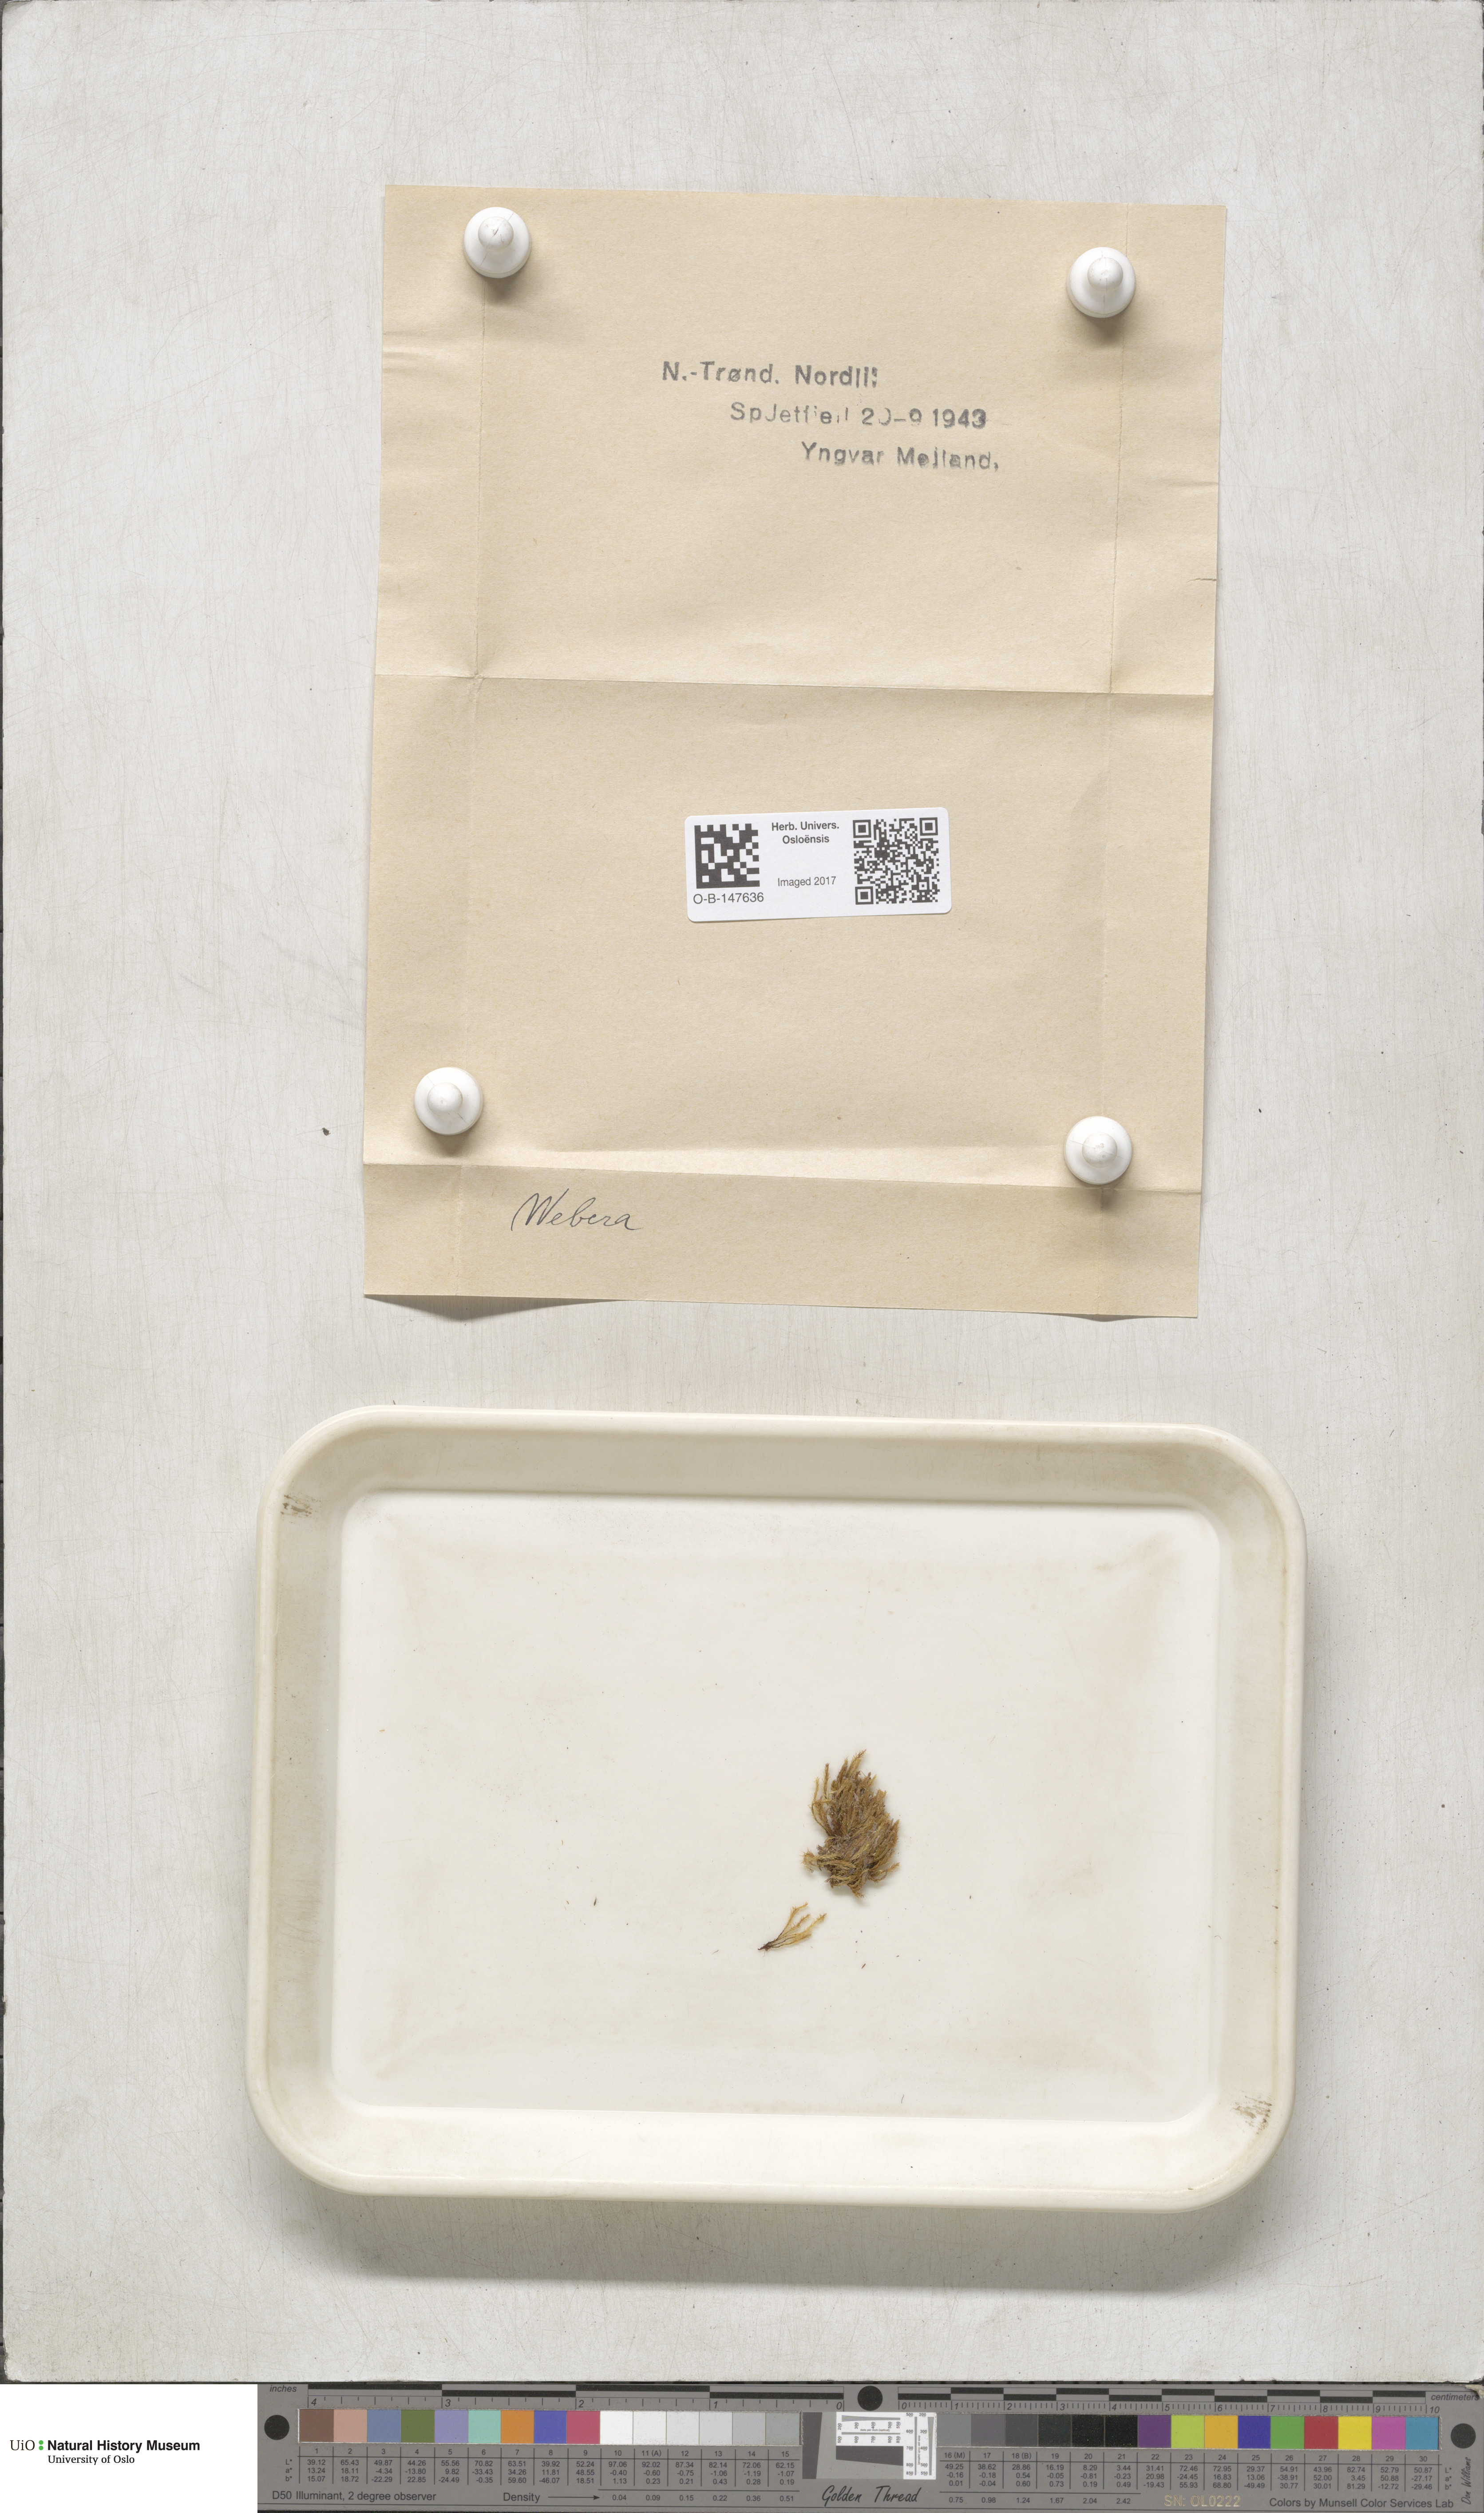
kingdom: Plantae
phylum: Bryophyta
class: Bryopsida
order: Bryales
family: Mniaceae
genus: Pohlia
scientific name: Pohlia
